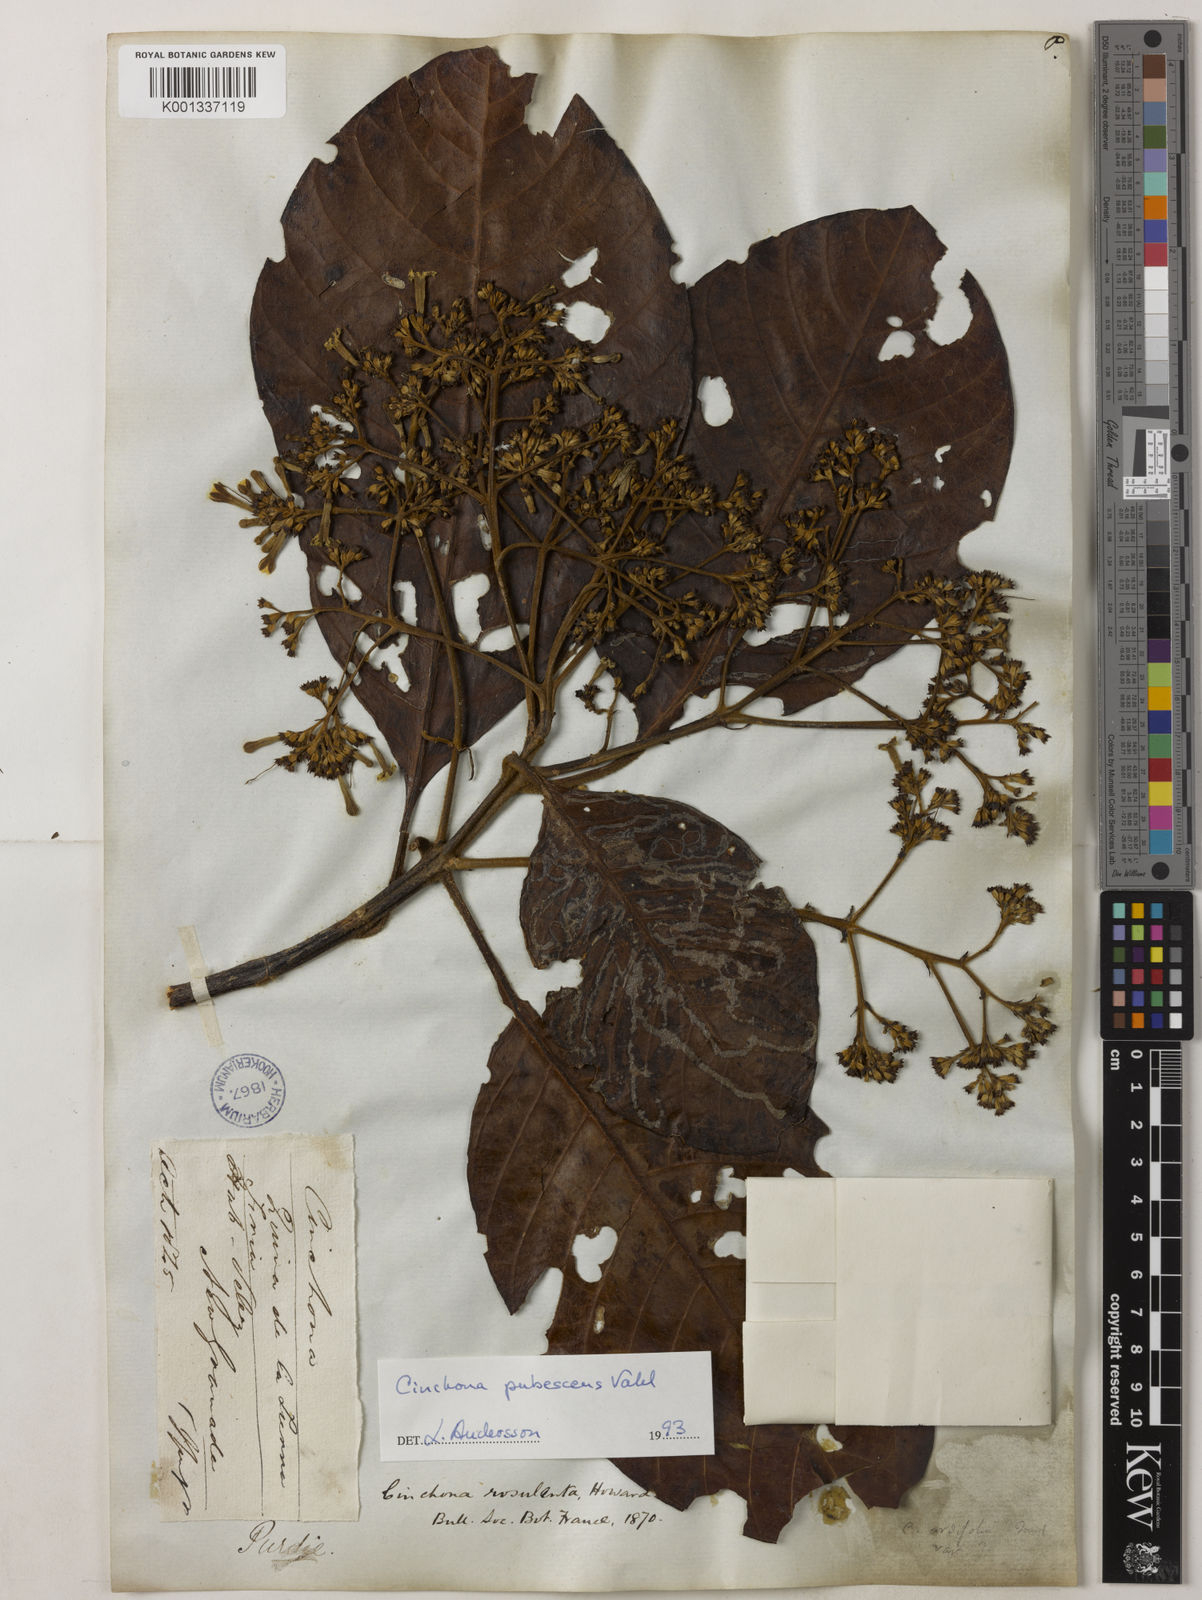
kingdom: Plantae
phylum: Tracheophyta
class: Magnoliopsida
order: Gentianales
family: Rubiaceae
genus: Cinchona
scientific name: Cinchona pubescens
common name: Quinine
